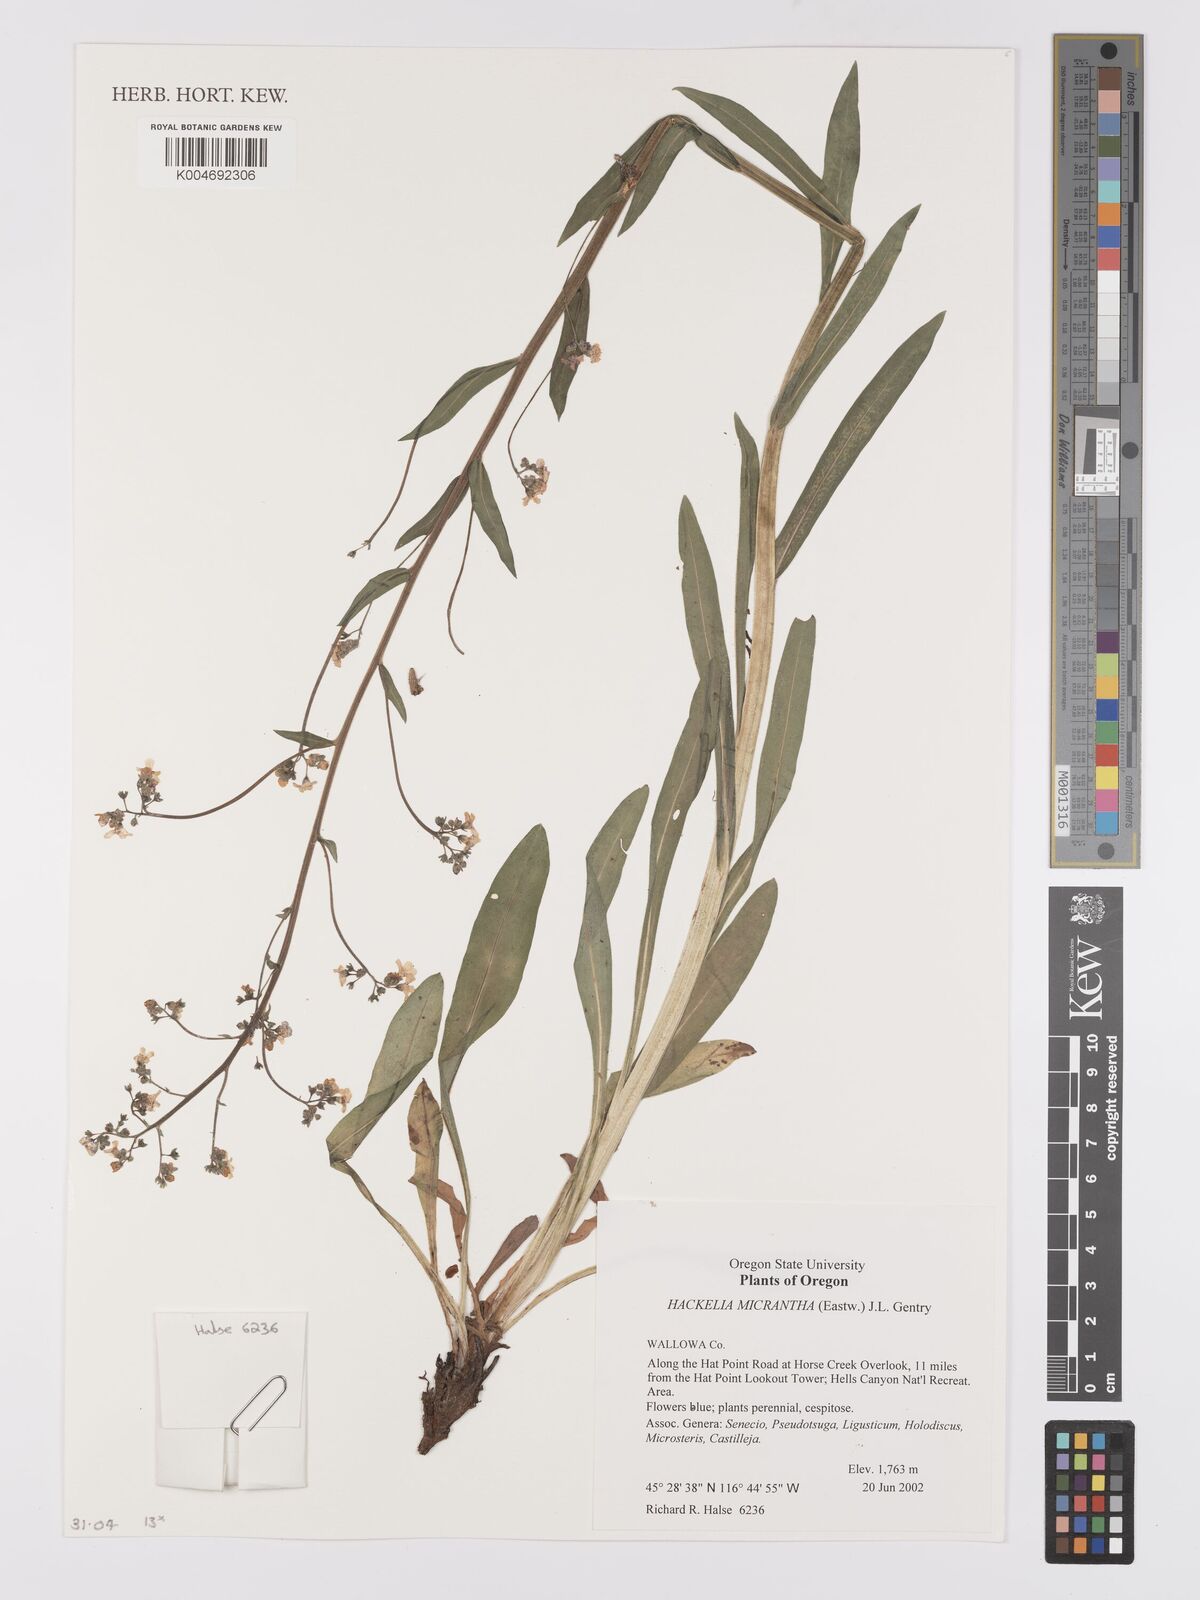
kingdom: Plantae
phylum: Tracheophyta
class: Magnoliopsida
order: Boraginales
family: Boraginaceae
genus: Hackelia
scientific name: Hackelia micrantha
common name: Meadow stickseed
